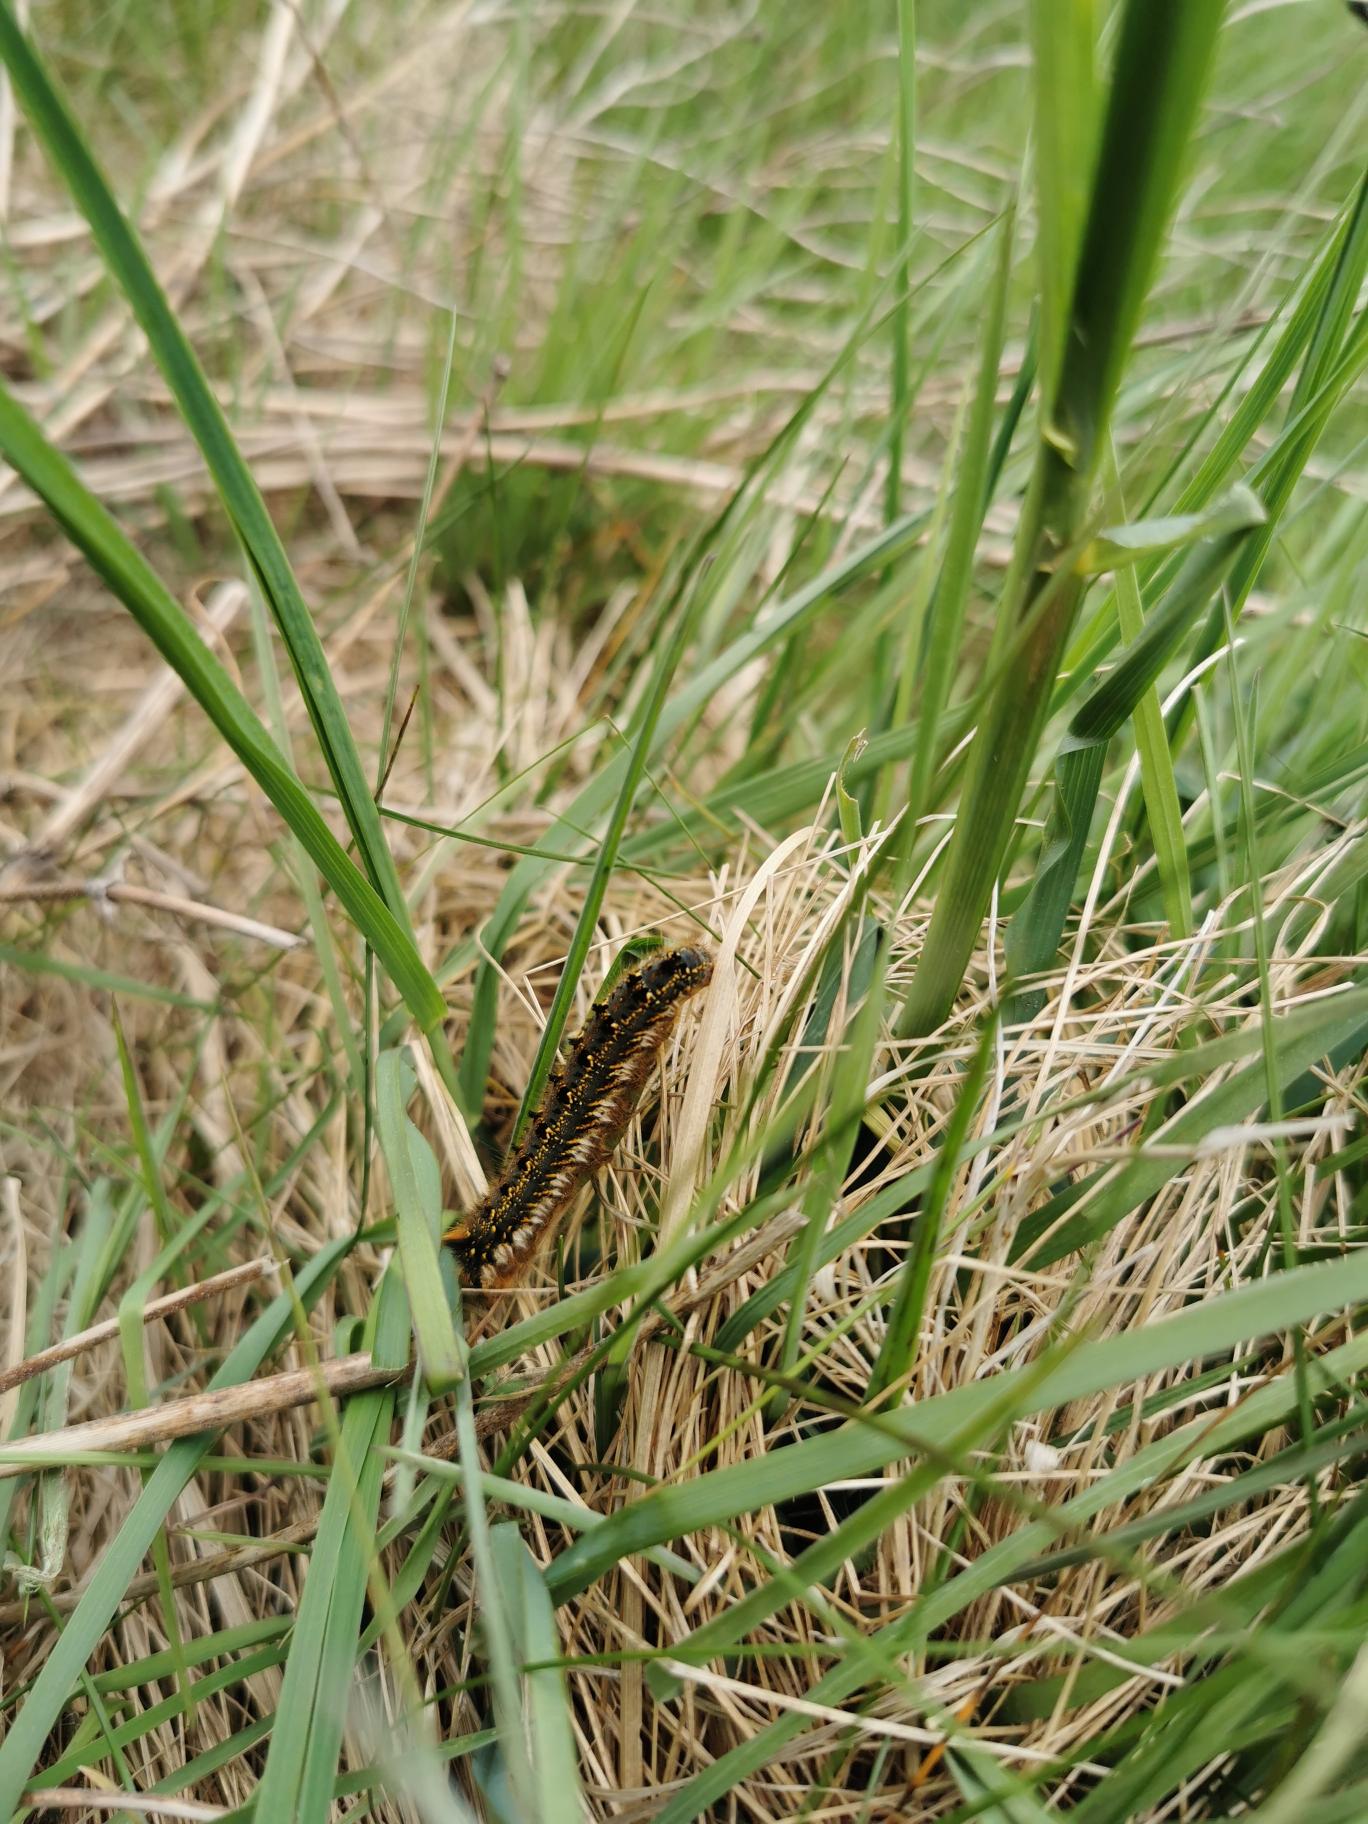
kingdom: Animalia
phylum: Arthropoda
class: Insecta
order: Lepidoptera
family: Lasiocampidae
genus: Euthrix
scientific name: Euthrix potatoria
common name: Græsspinder
